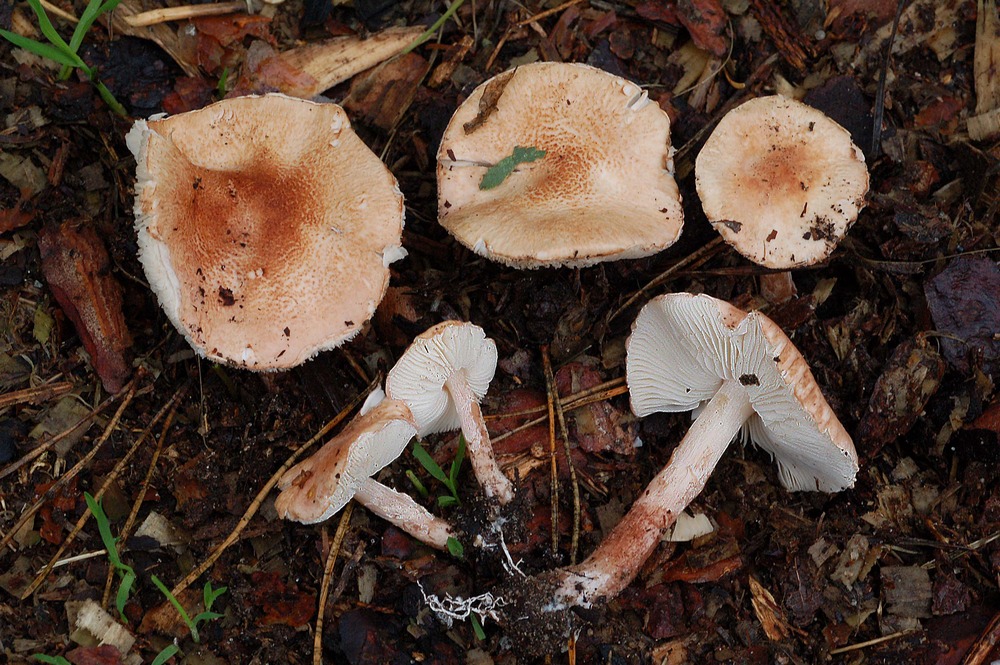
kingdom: Fungi
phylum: Basidiomycota
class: Agaricomycetes
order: Agaricales
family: Agaricaceae
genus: Lepiota
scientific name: Lepiota subincarnata
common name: kødfarvet parasolhat
